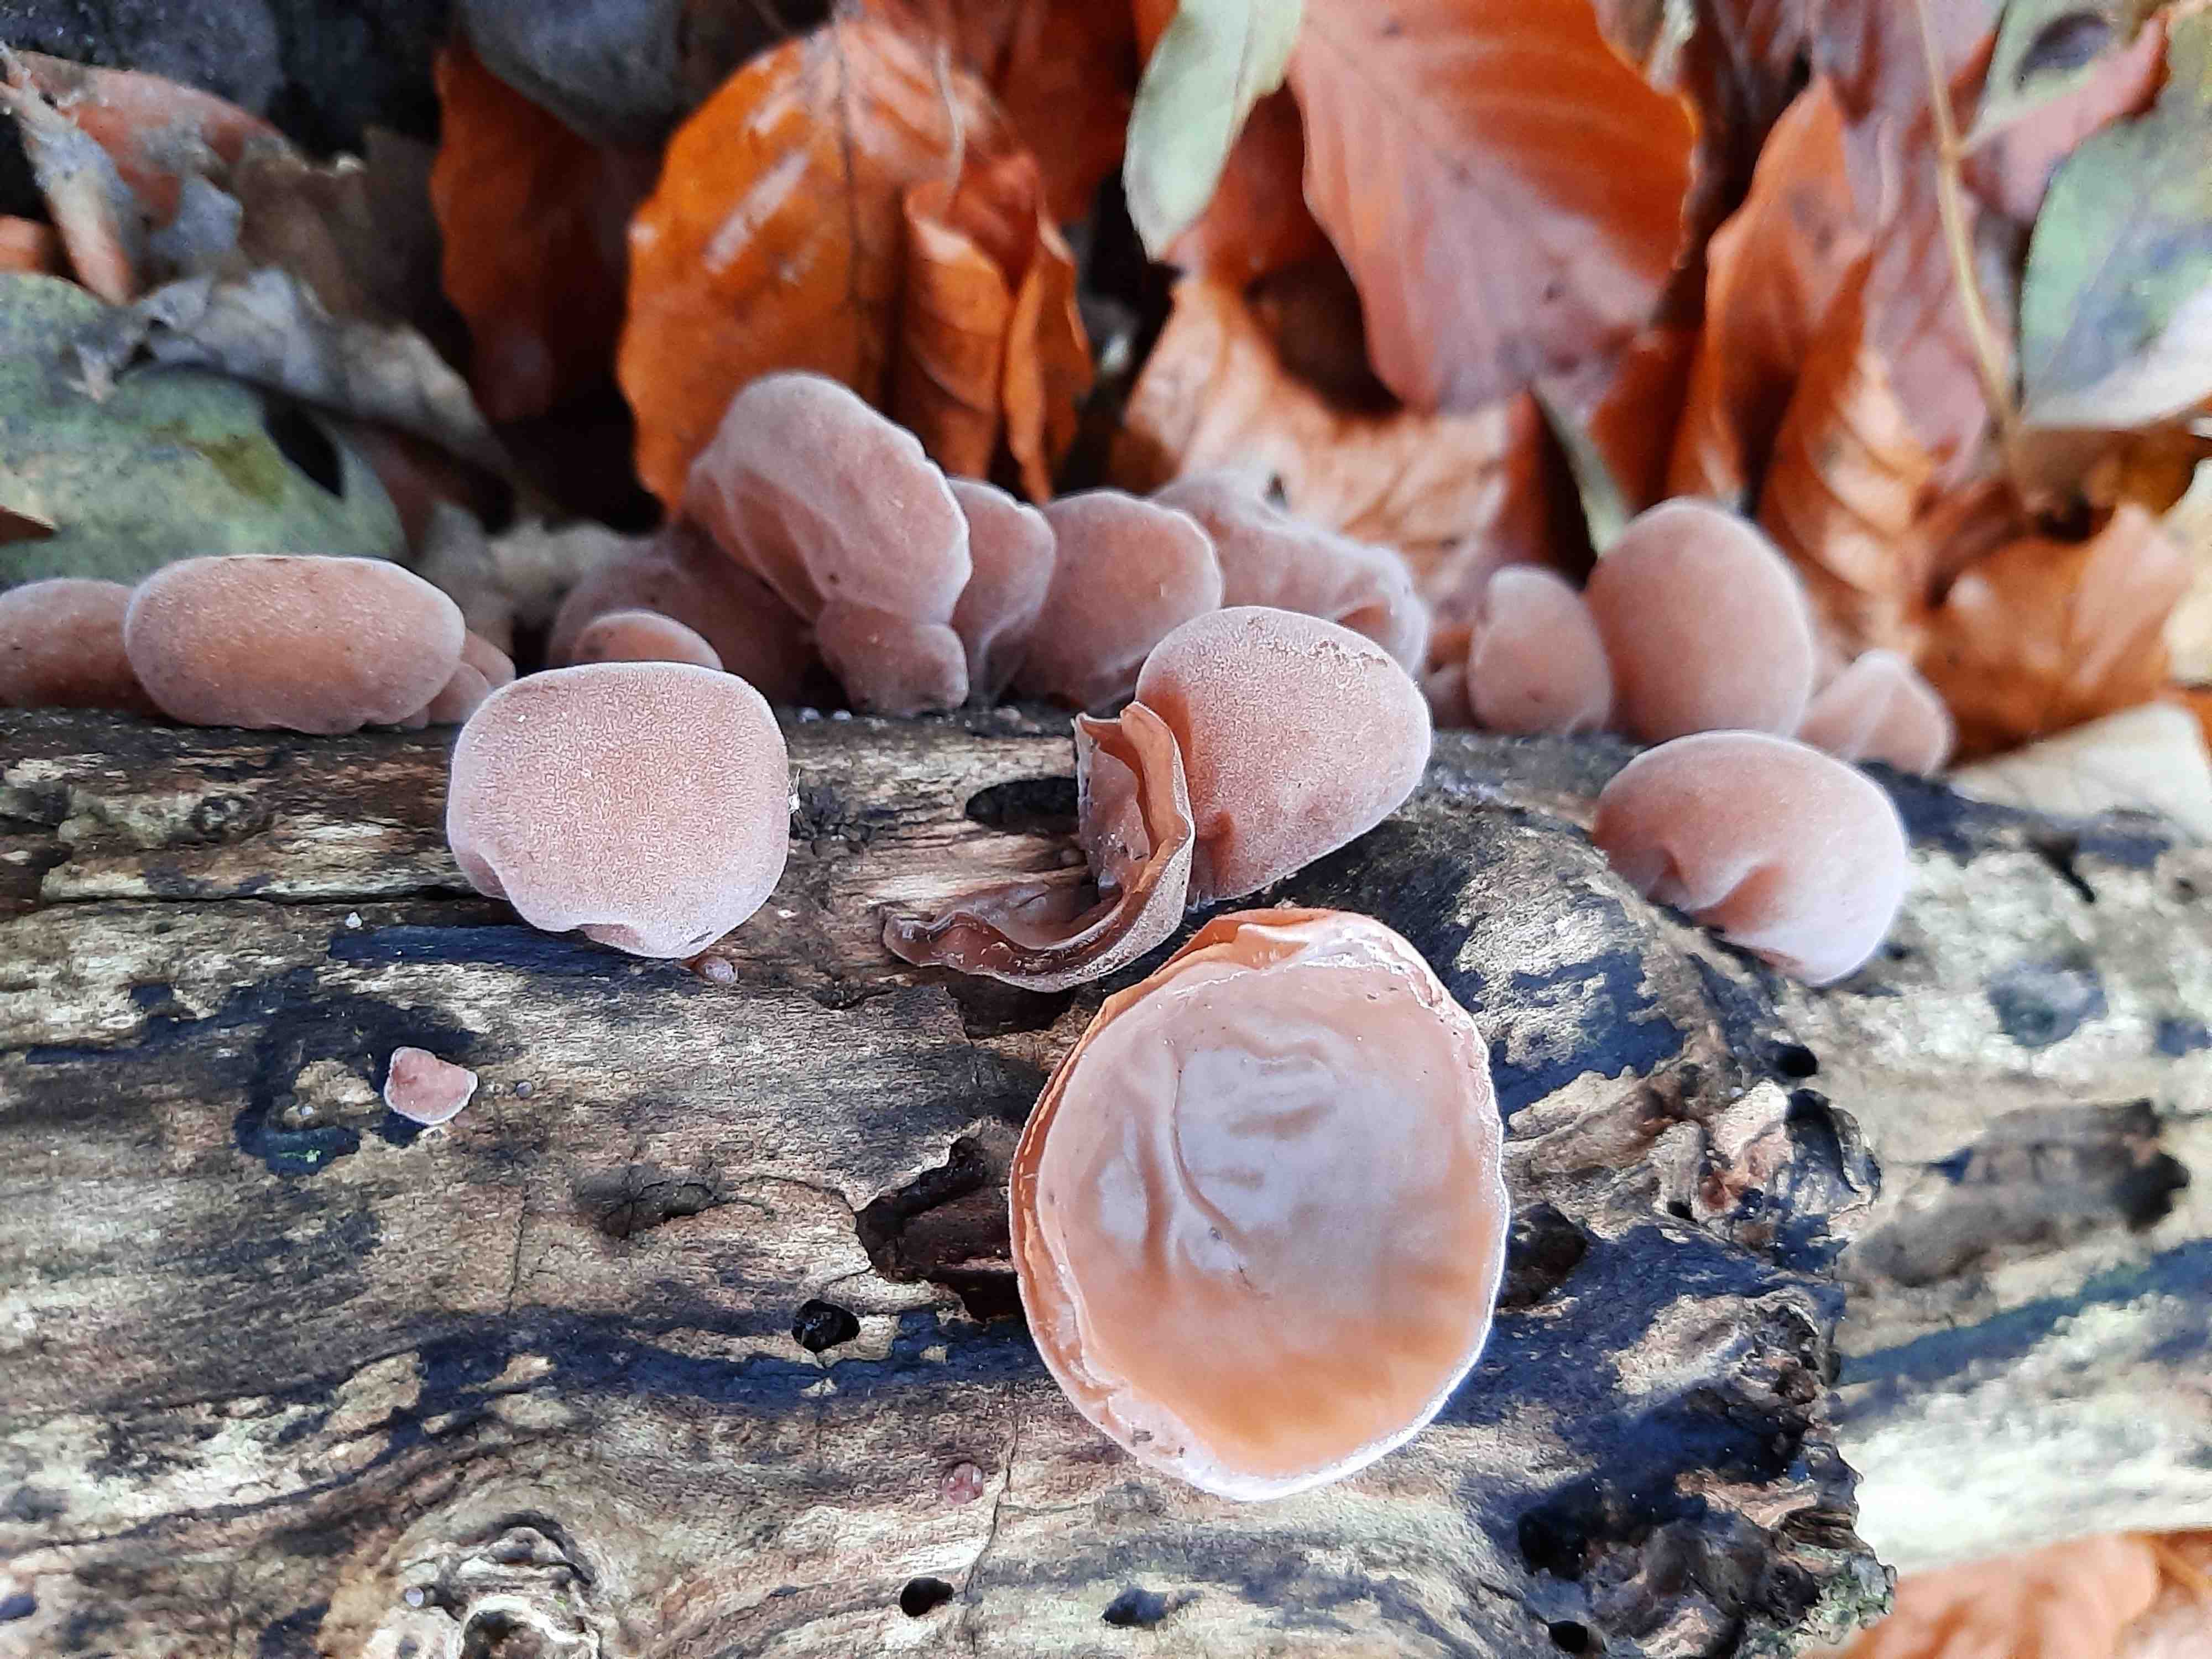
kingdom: Fungi
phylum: Basidiomycota
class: Agaricomycetes
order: Auriculariales
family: Auriculariaceae
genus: Auricularia
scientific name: Auricularia auricula-judae
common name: almindelig judasøre
